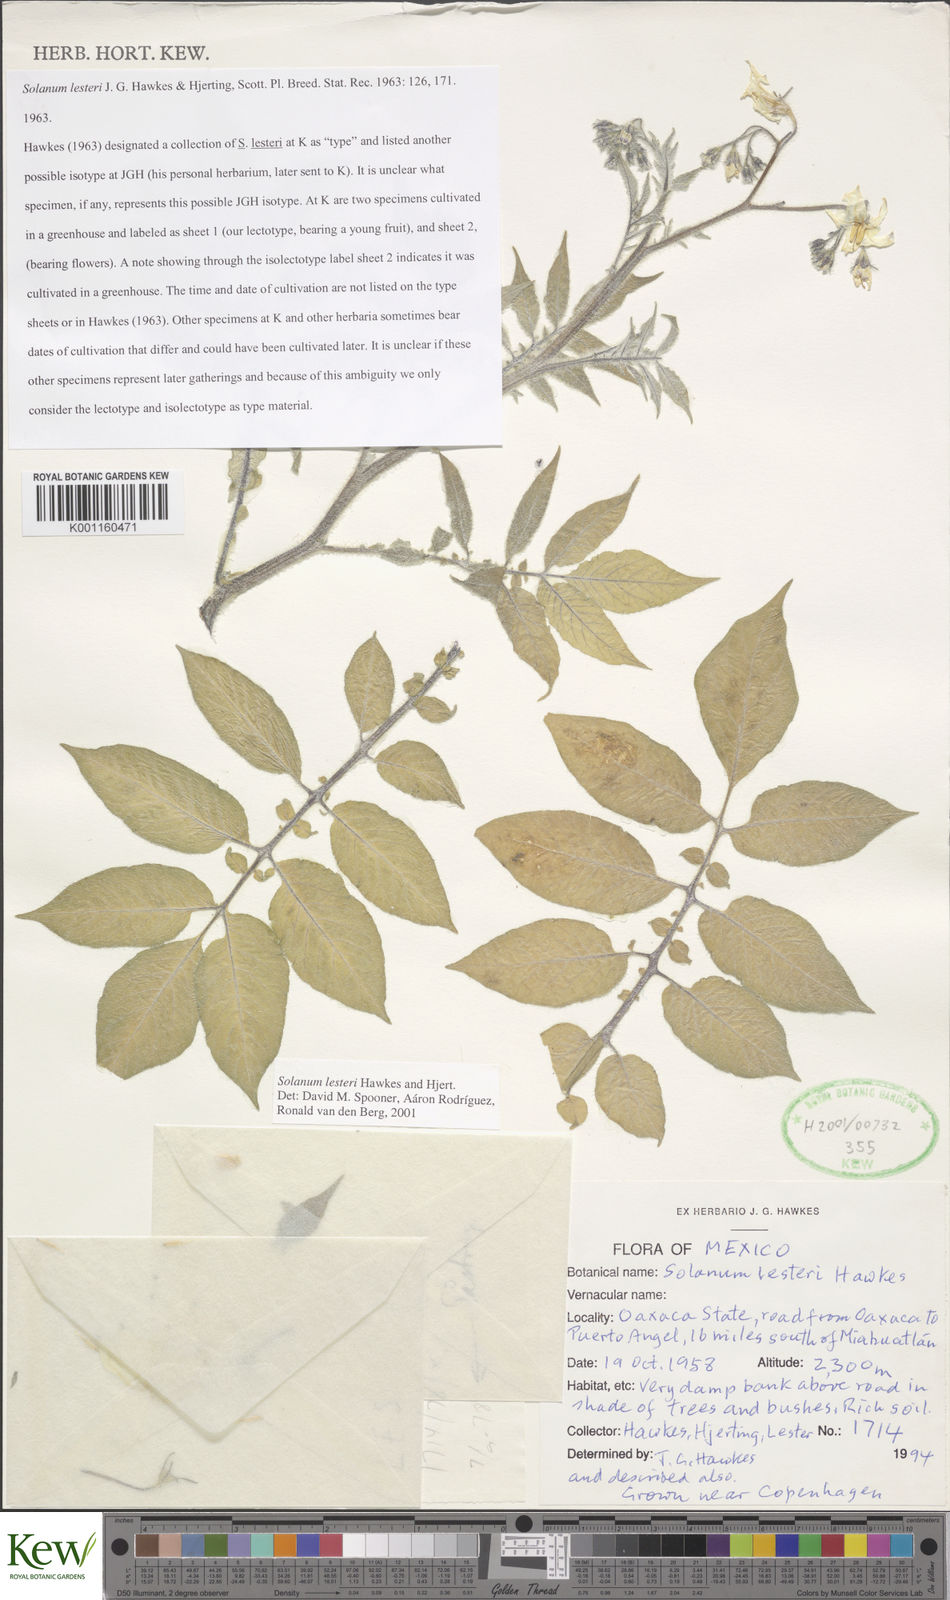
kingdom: Plantae
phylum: Tracheophyta
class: Magnoliopsida
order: Solanales
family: Solanaceae
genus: Solanum
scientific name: Solanum lesteri
